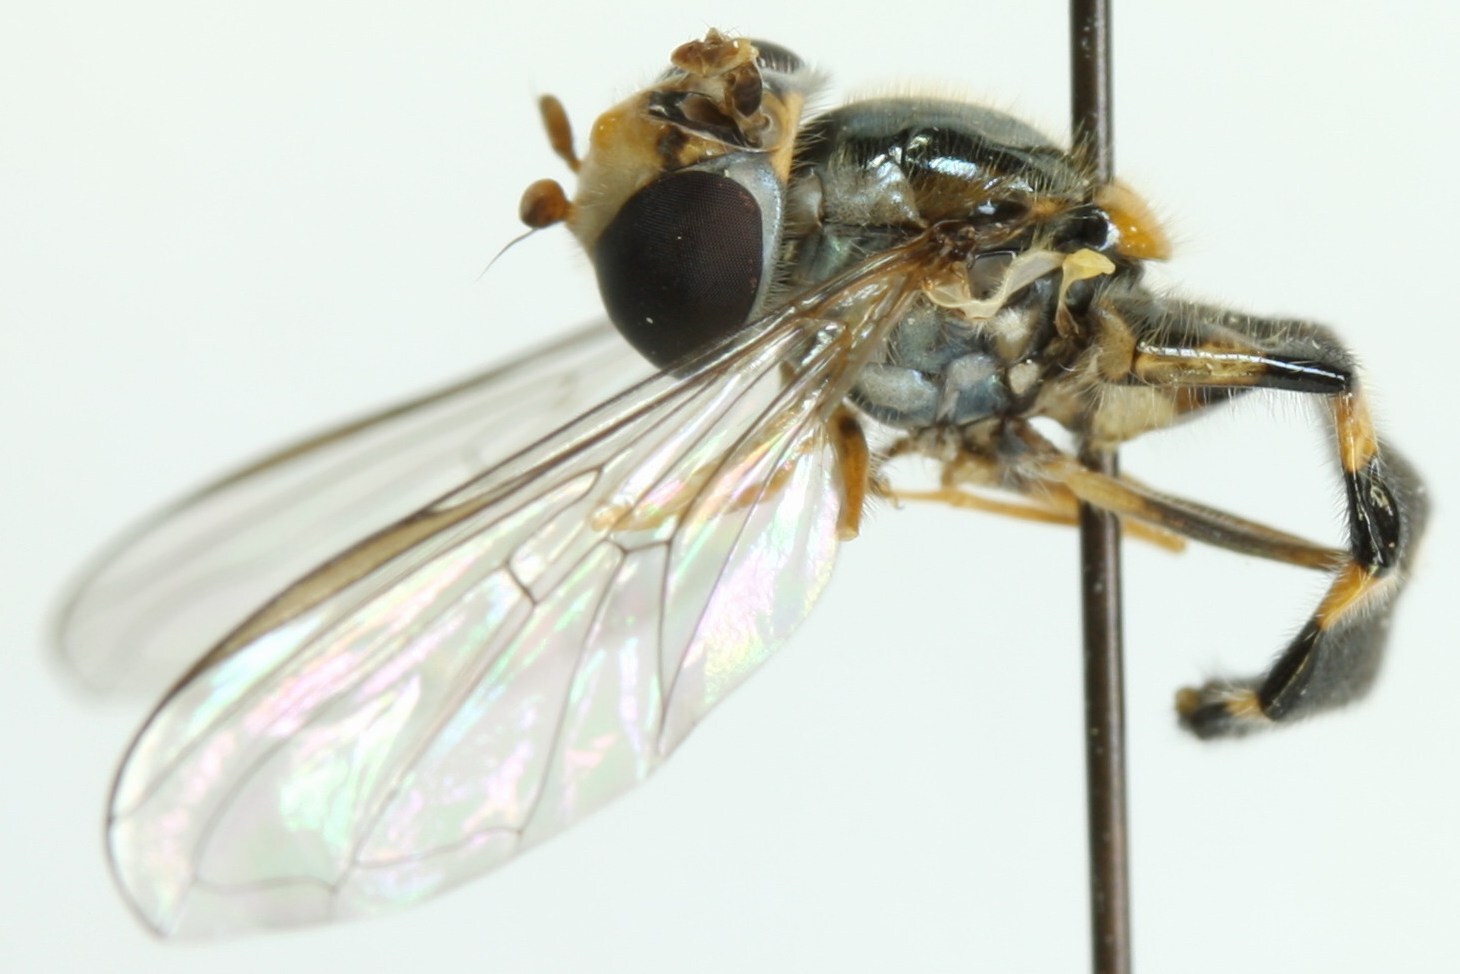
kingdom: Animalia
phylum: Arthropoda
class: Insecta
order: Diptera
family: Syrphidae
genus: Meligramma
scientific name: Meligramma triangulifera
